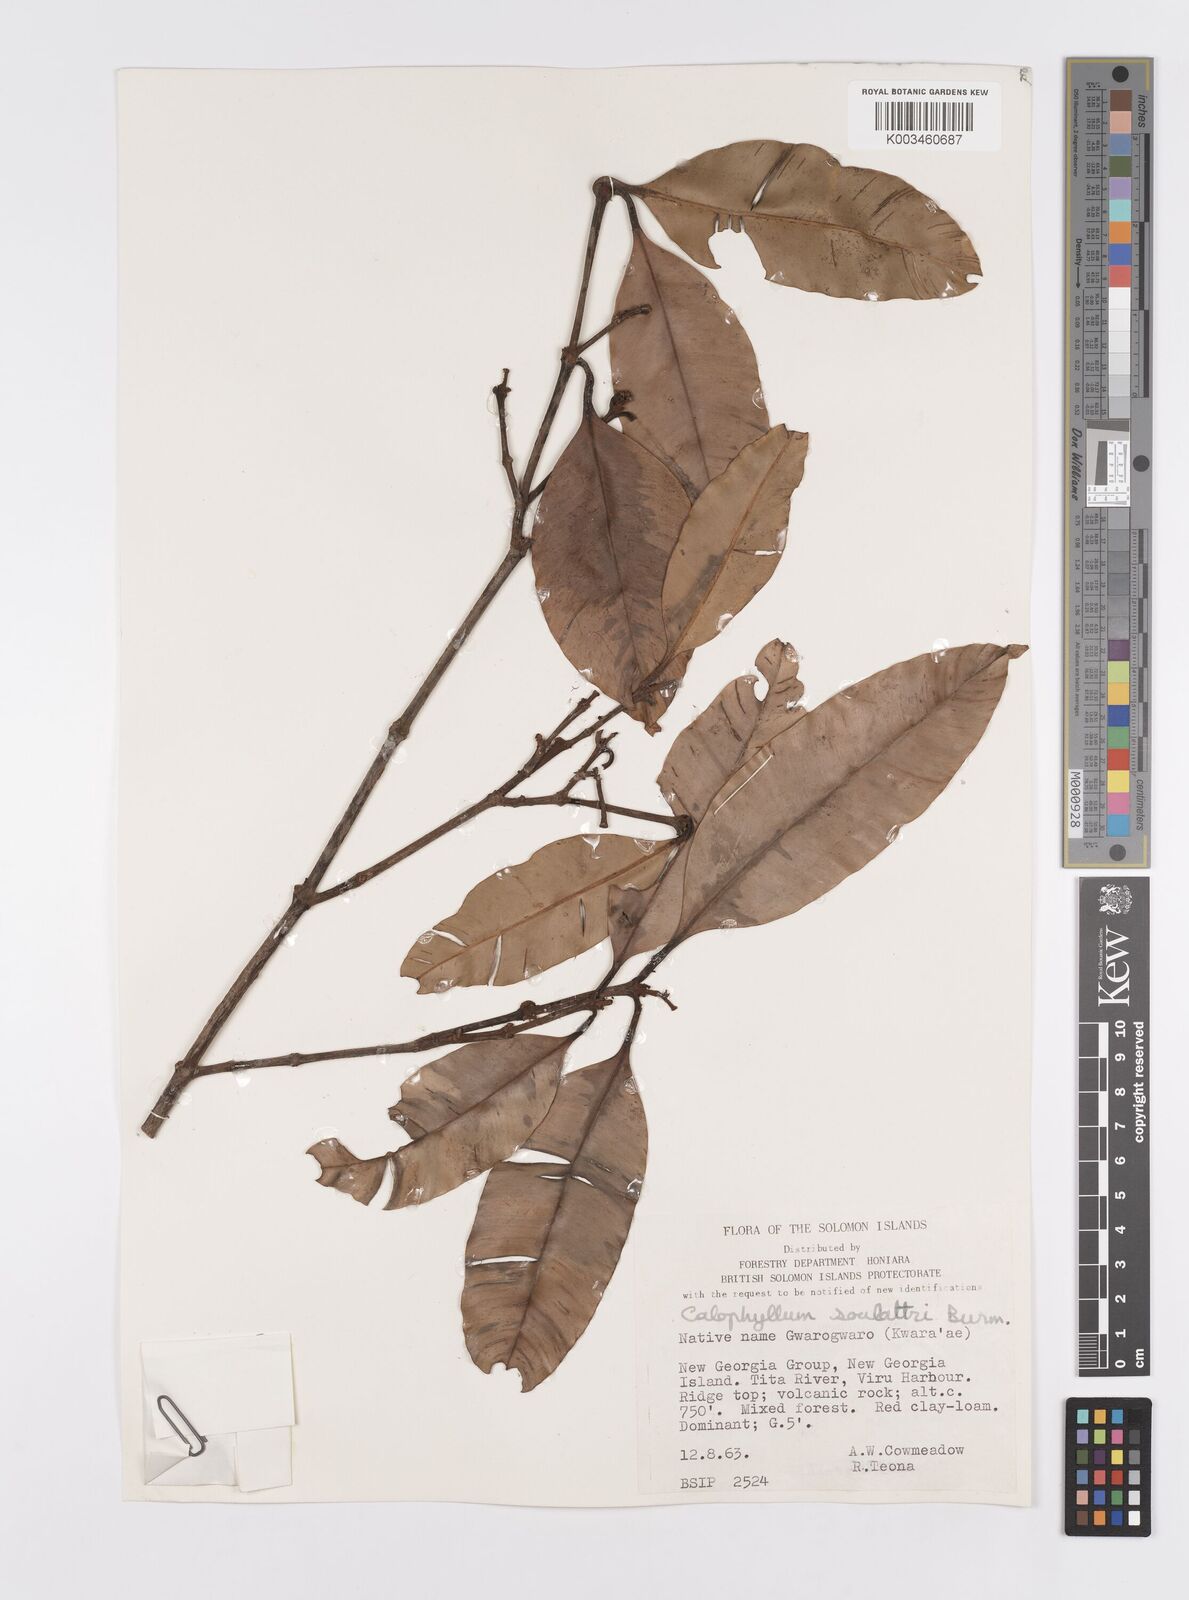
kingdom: Plantae
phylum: Tracheophyta
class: Magnoliopsida
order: Malpighiales
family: Calophyllaceae
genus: Calophyllum
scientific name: Calophyllum soulattri
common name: Bitangoor boonot
